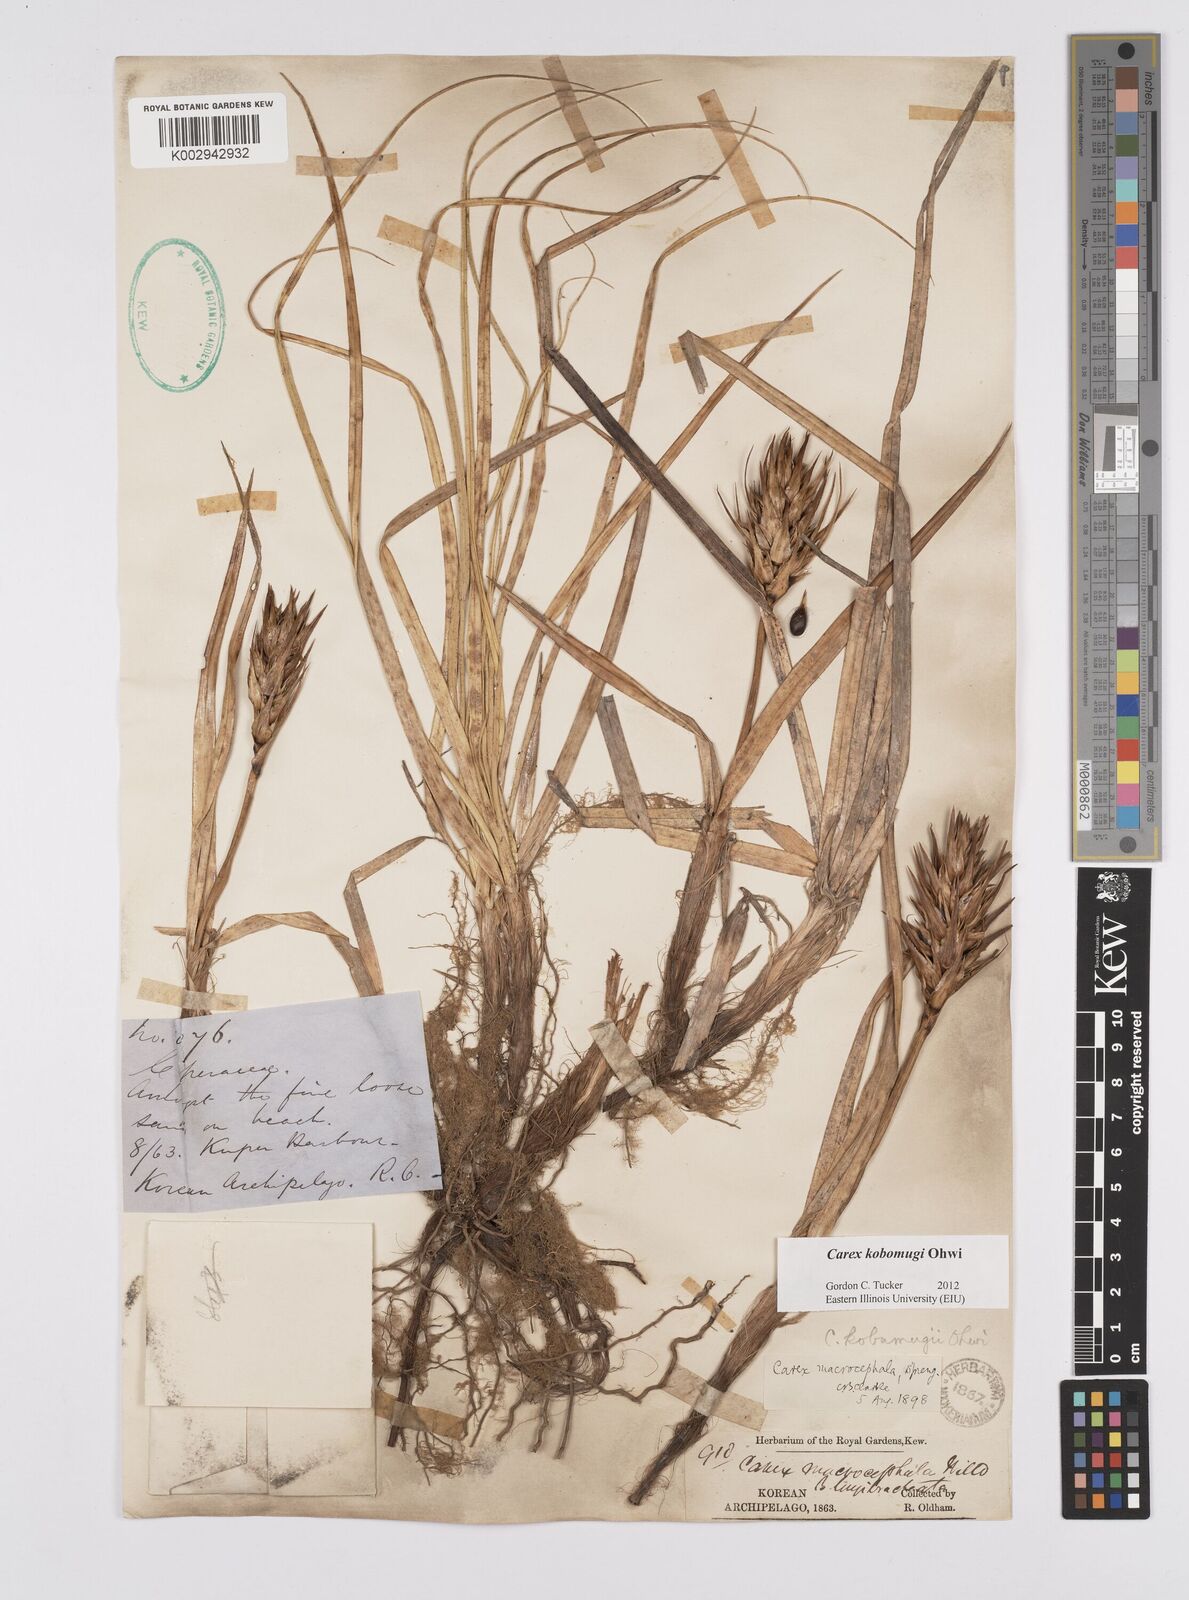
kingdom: Plantae
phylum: Tracheophyta
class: Liliopsida
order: Poales
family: Cyperaceae
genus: Carex
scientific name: Carex kobomugi
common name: Japanese sedge
